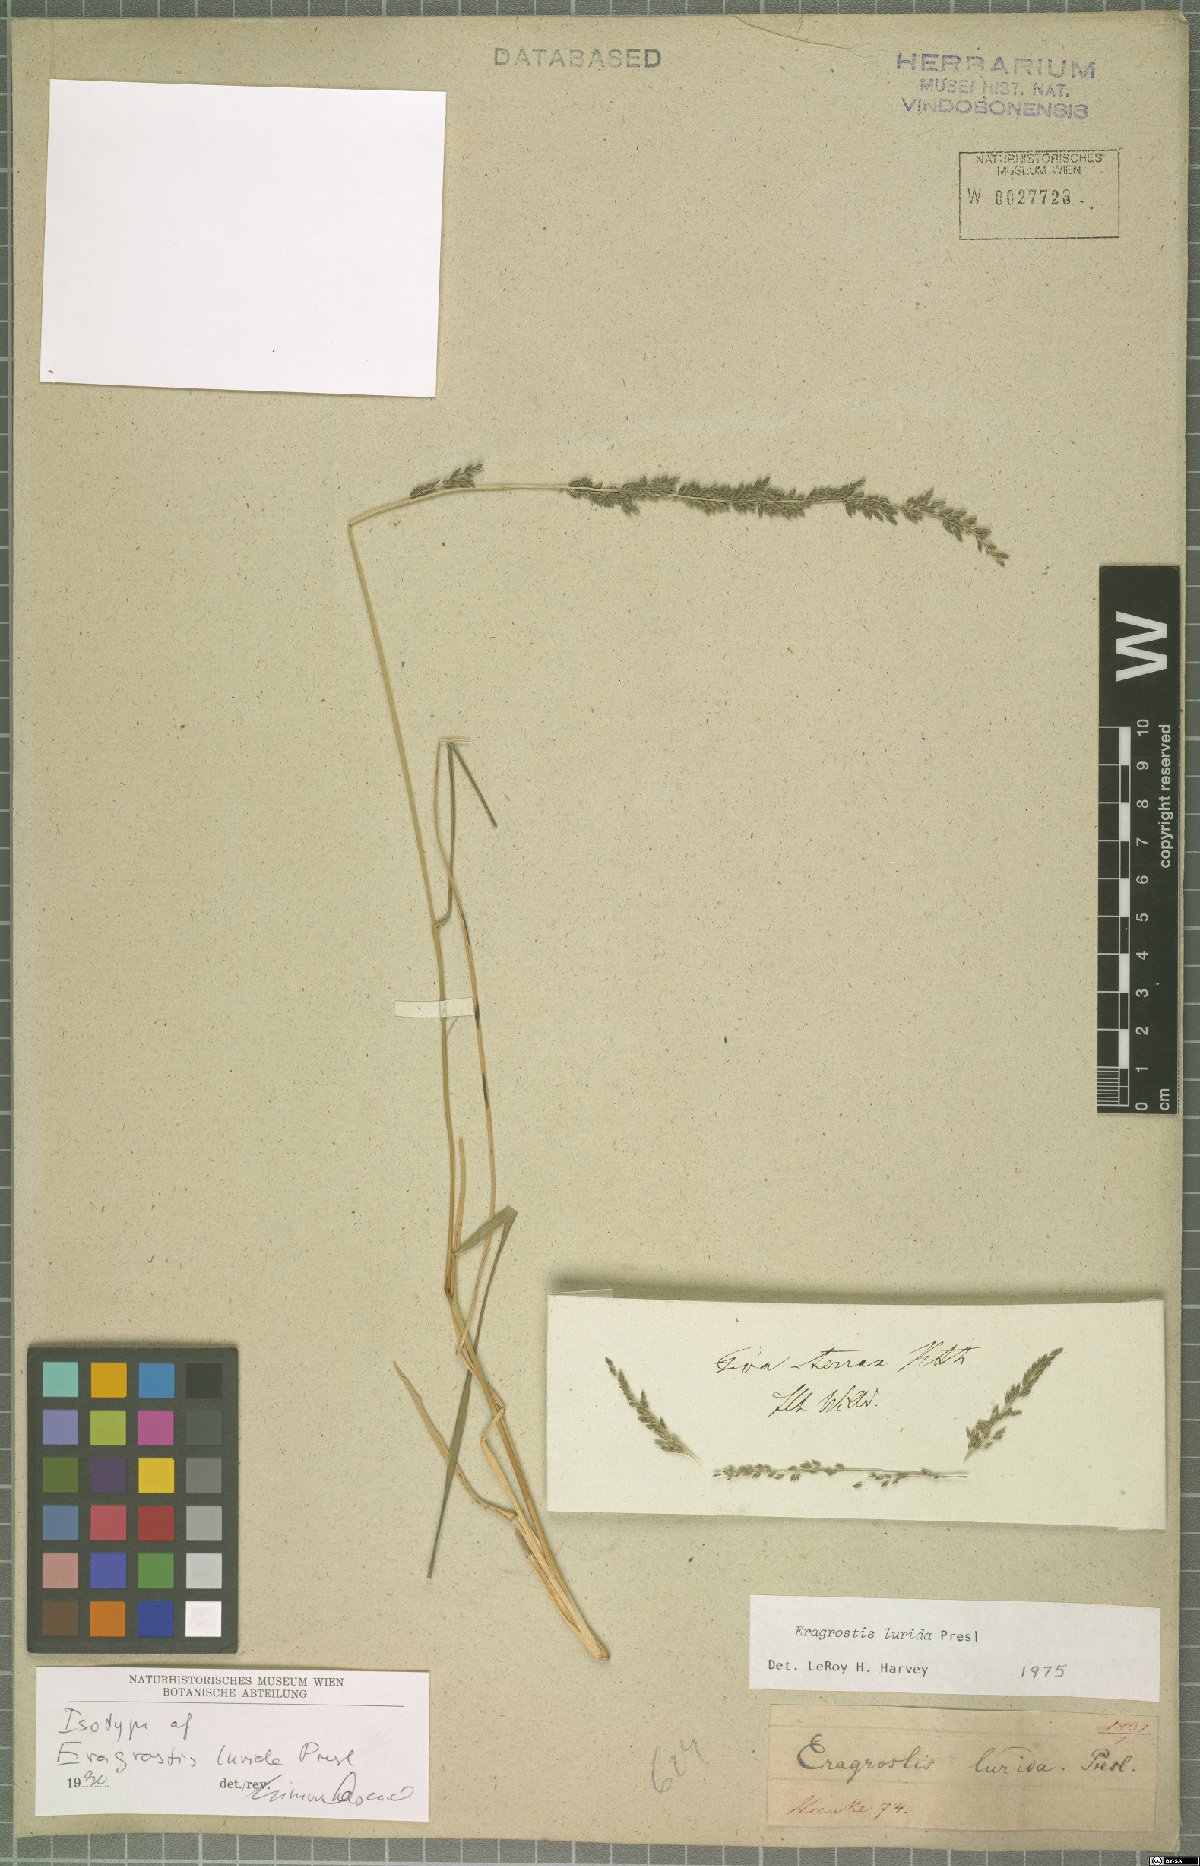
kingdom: Plantae
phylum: Tracheophyta
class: Liliopsida
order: Poales
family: Poaceae
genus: Eragrostis
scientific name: Eragrostis lurida
